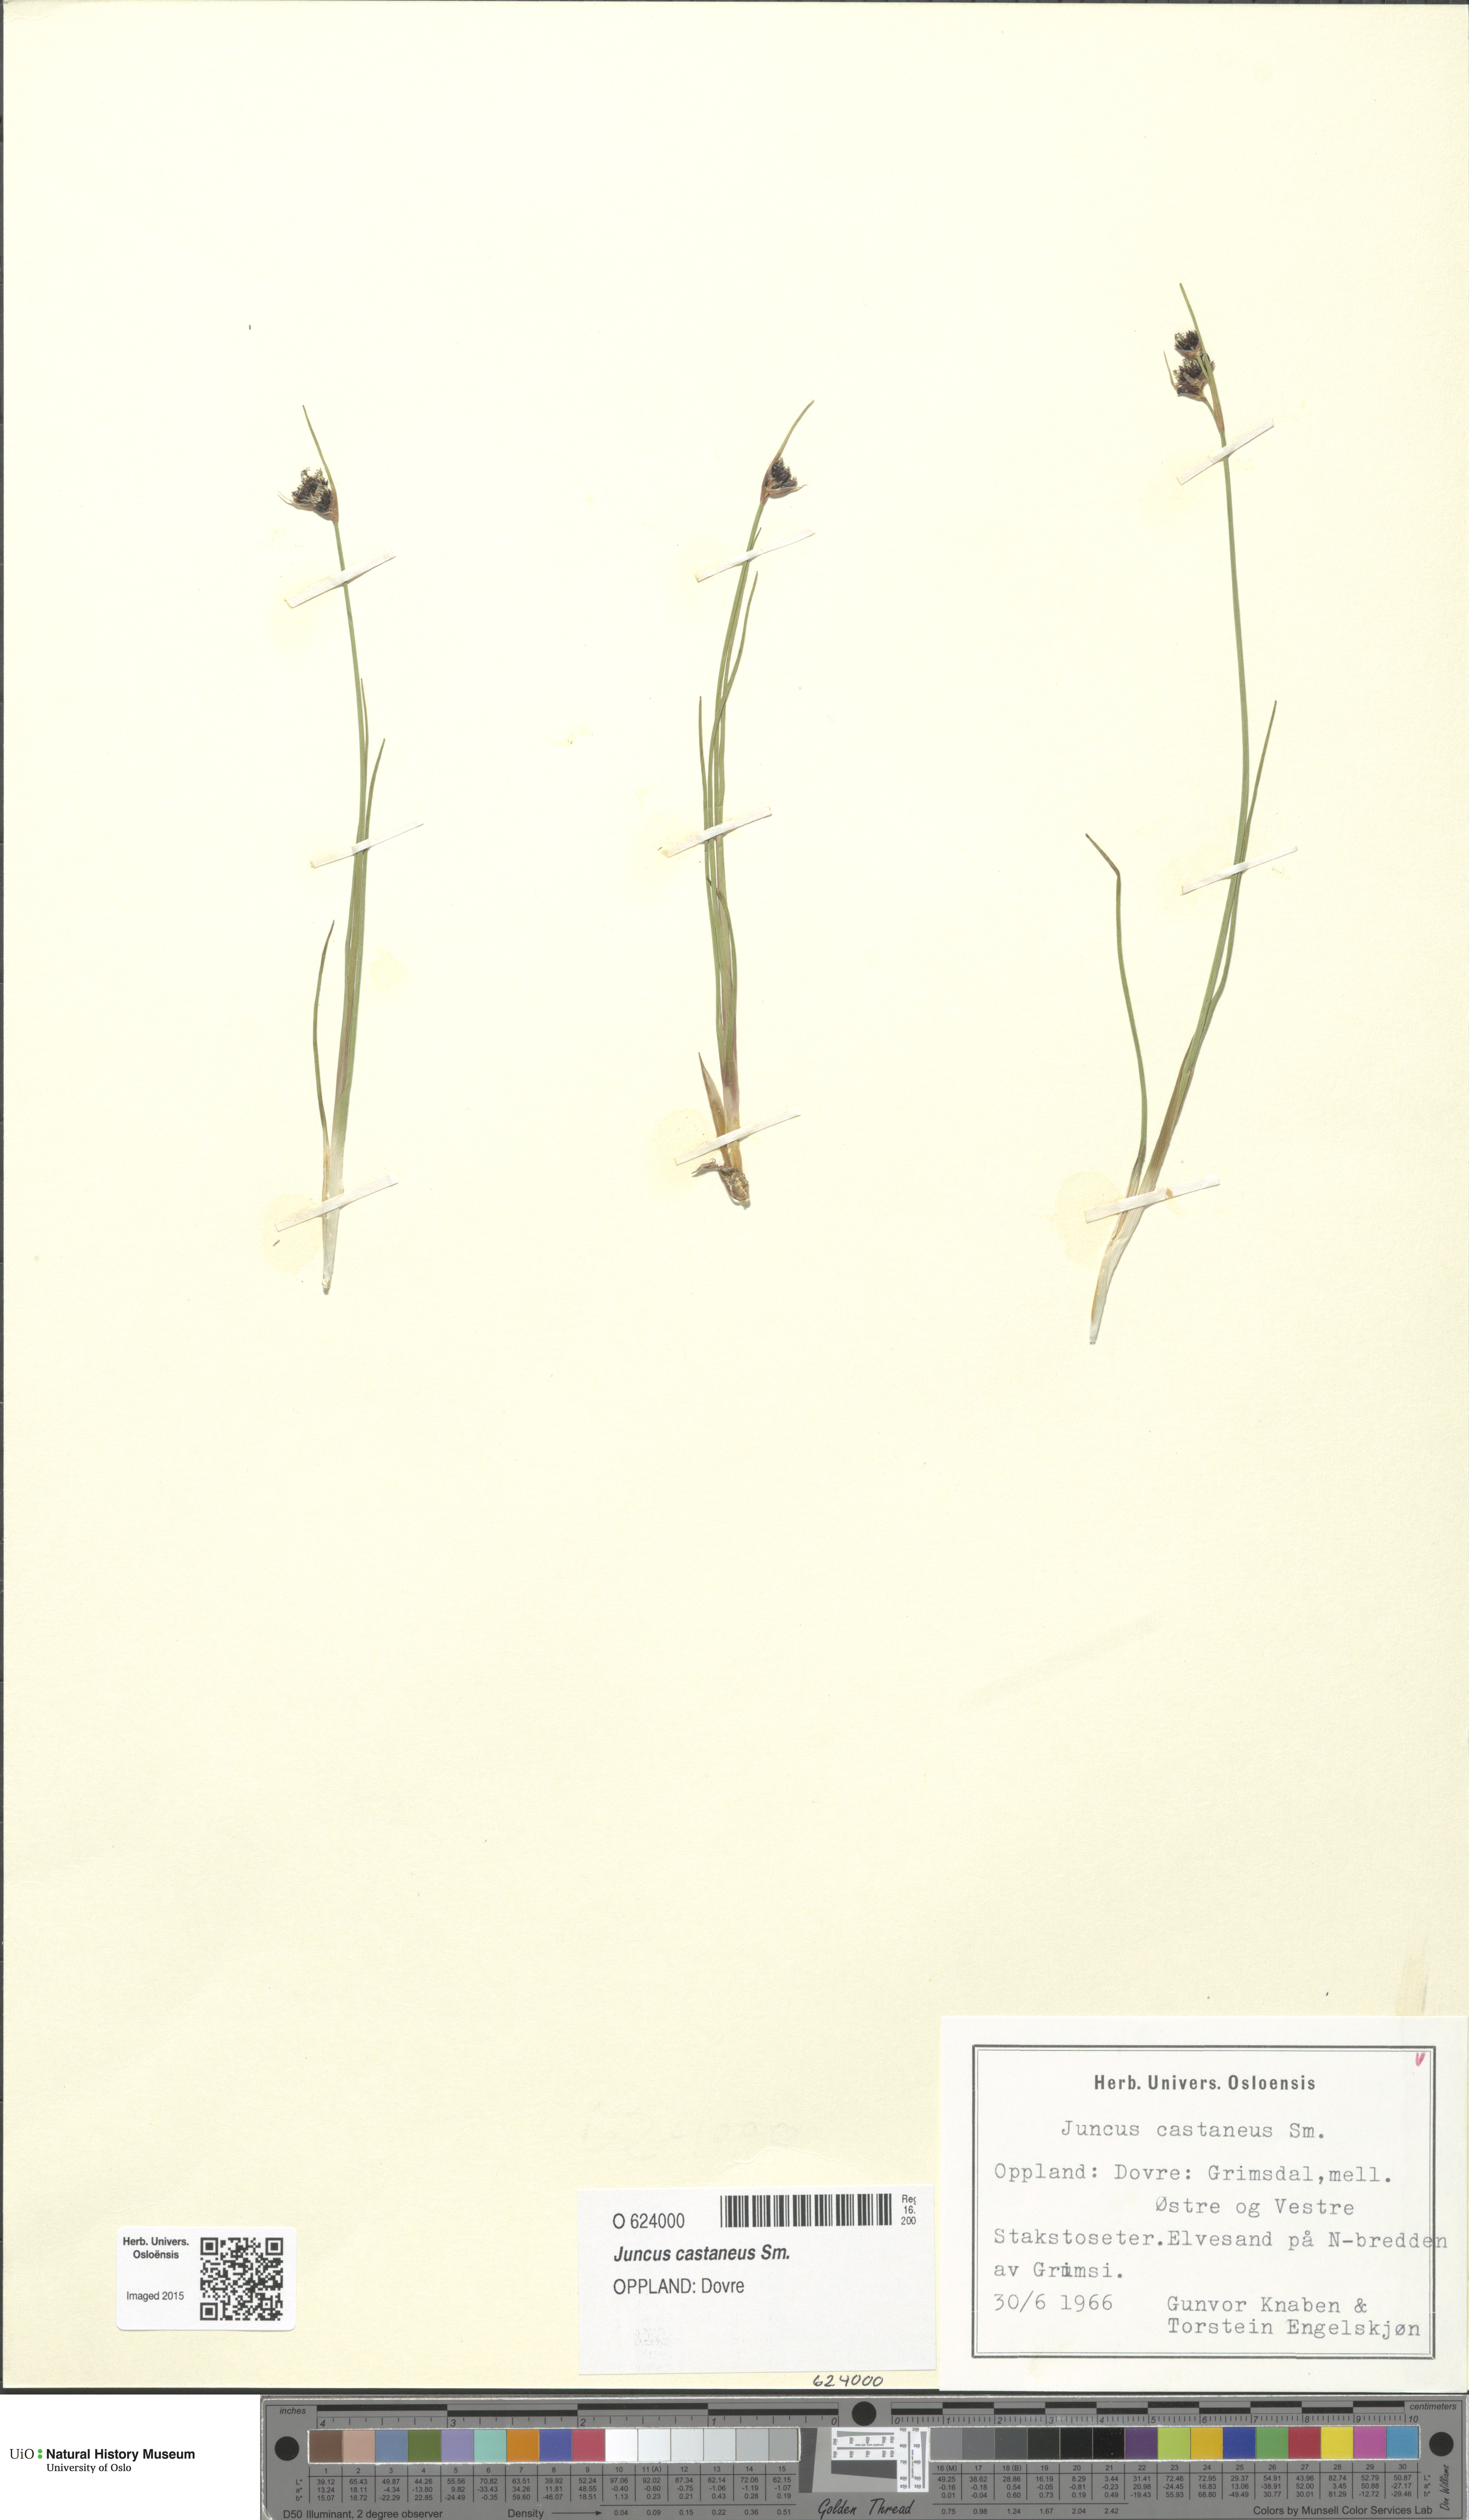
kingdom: Plantae
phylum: Tracheophyta
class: Liliopsida
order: Poales
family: Juncaceae
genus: Juncus
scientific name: Juncus castaneus
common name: Chestnut rush
